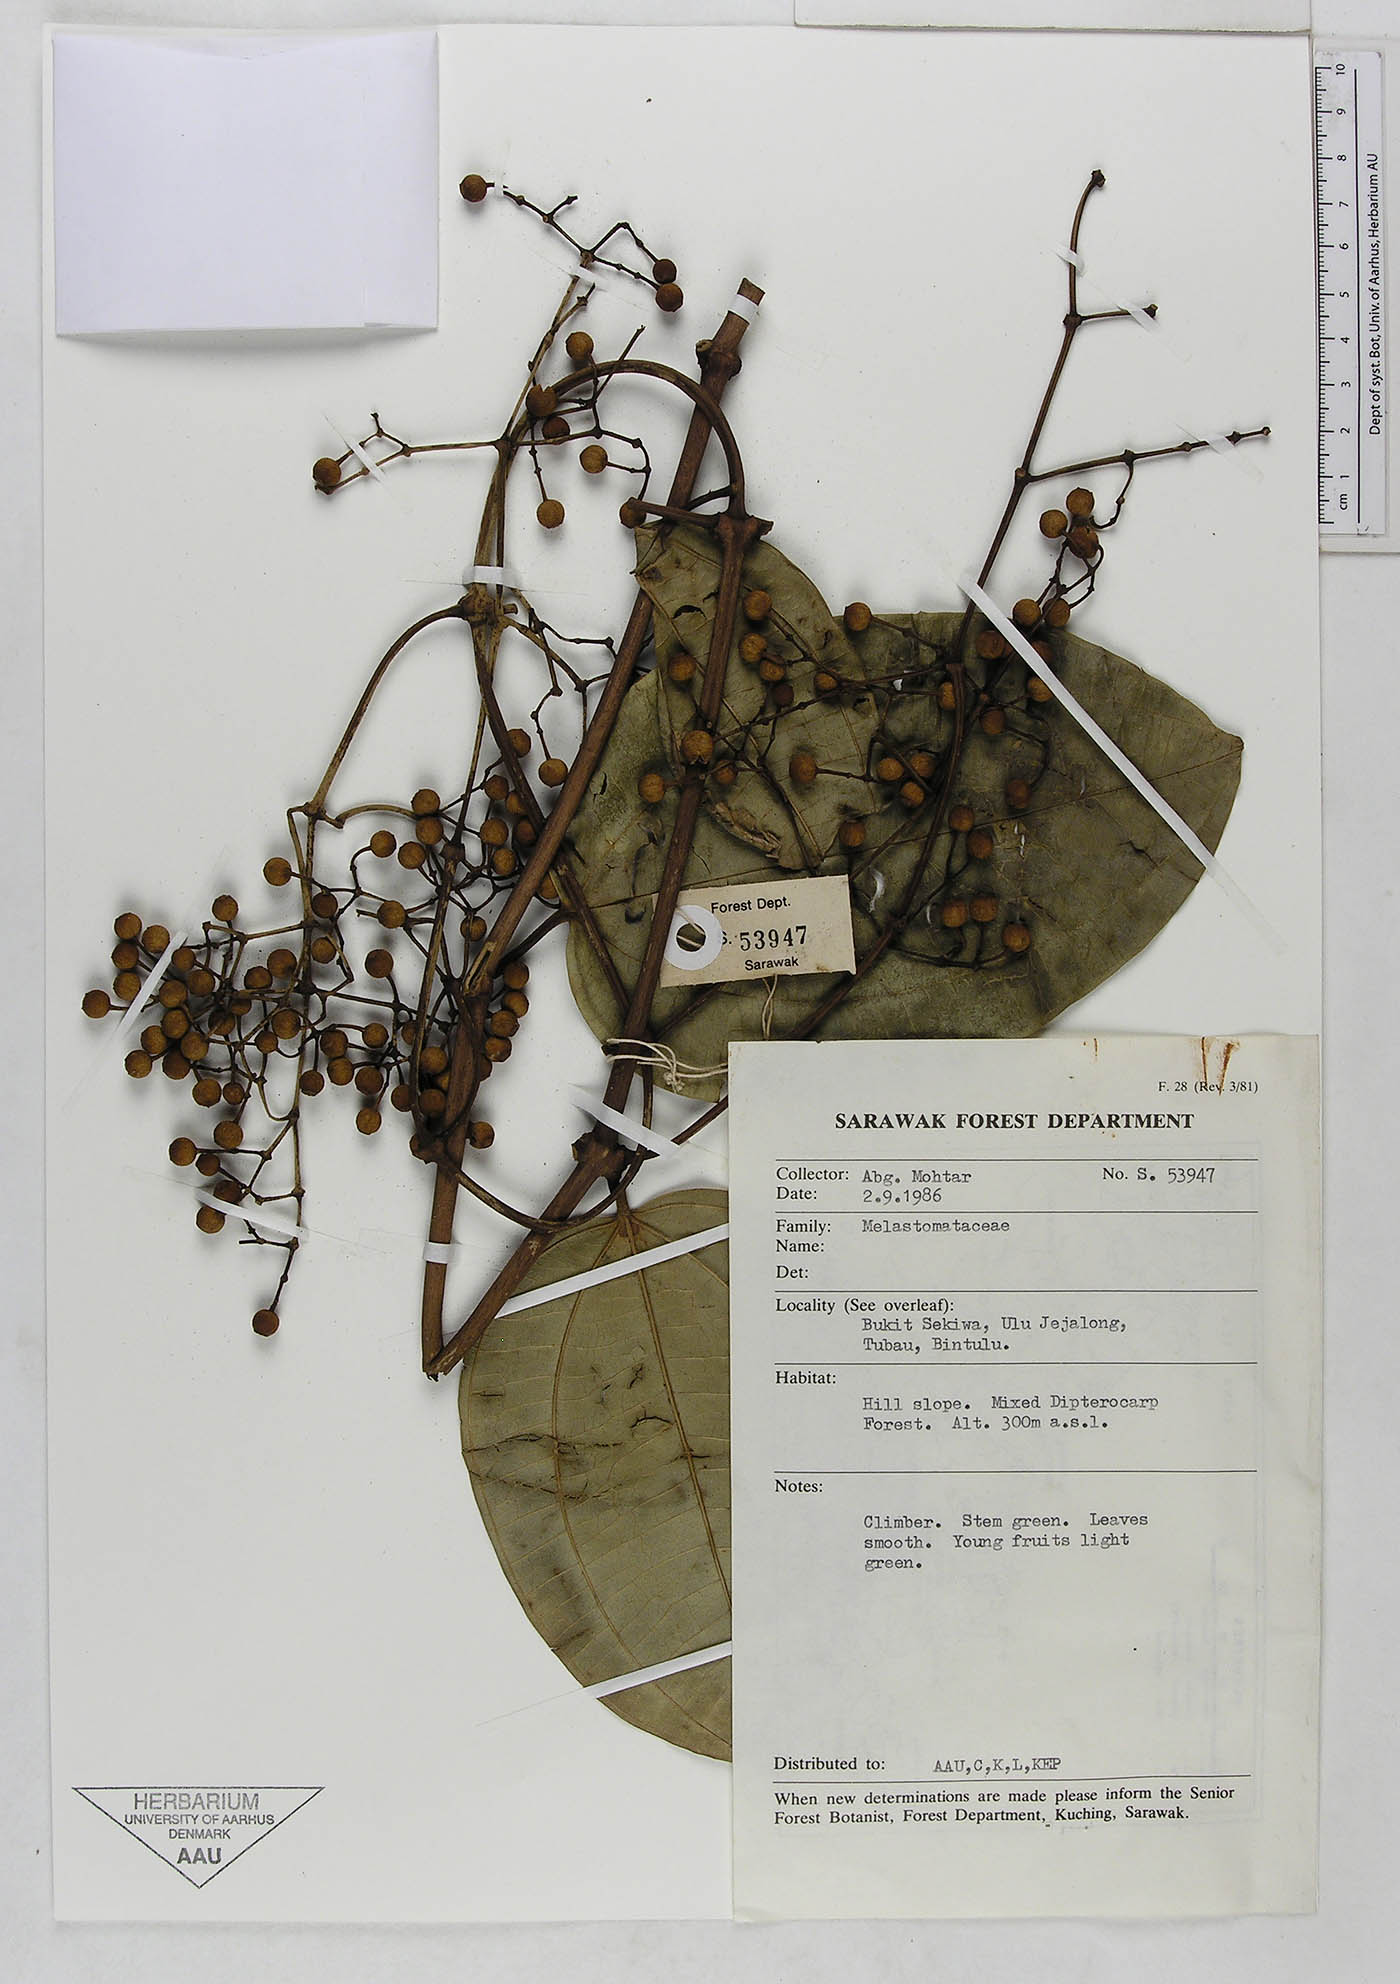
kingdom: Plantae
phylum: Tracheophyta
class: Magnoliopsida
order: Myrtales
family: Melastomataceae
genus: Dalenia
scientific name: Dalenia glabra
